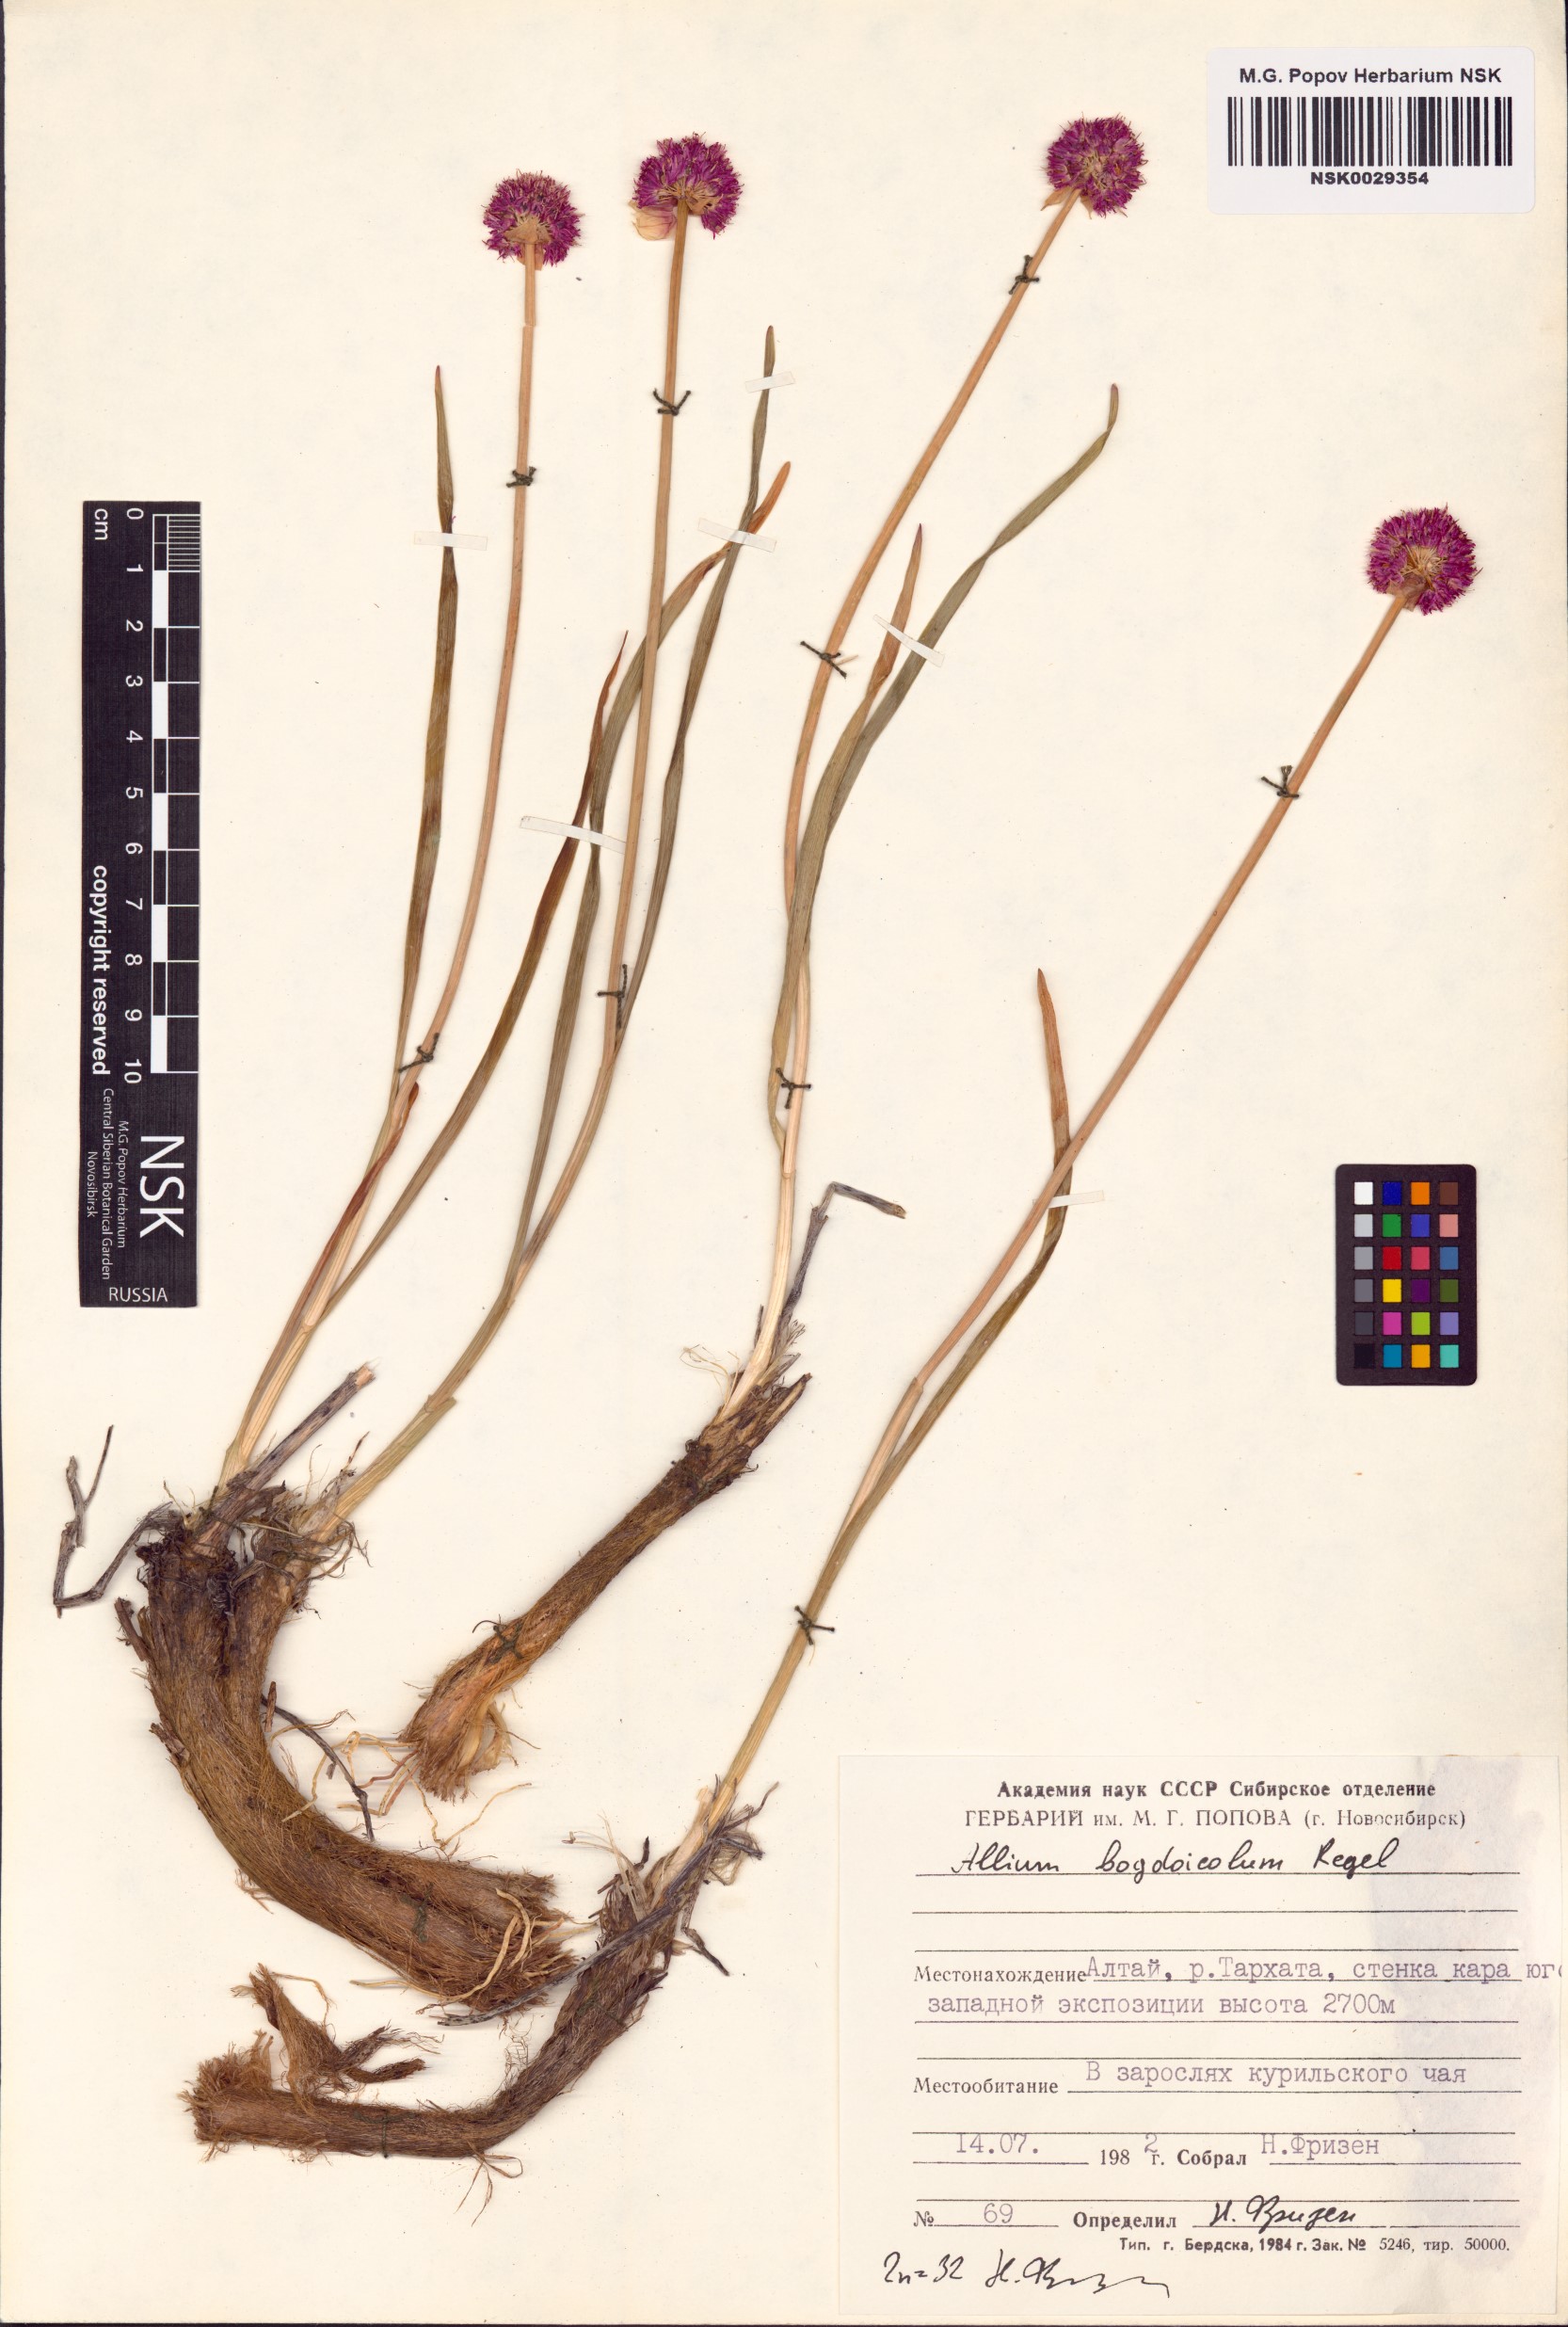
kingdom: Plantae
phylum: Tracheophyta
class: Liliopsida
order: Asparagales
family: Amaryllidaceae
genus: Allium
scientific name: Allium schrenkii
